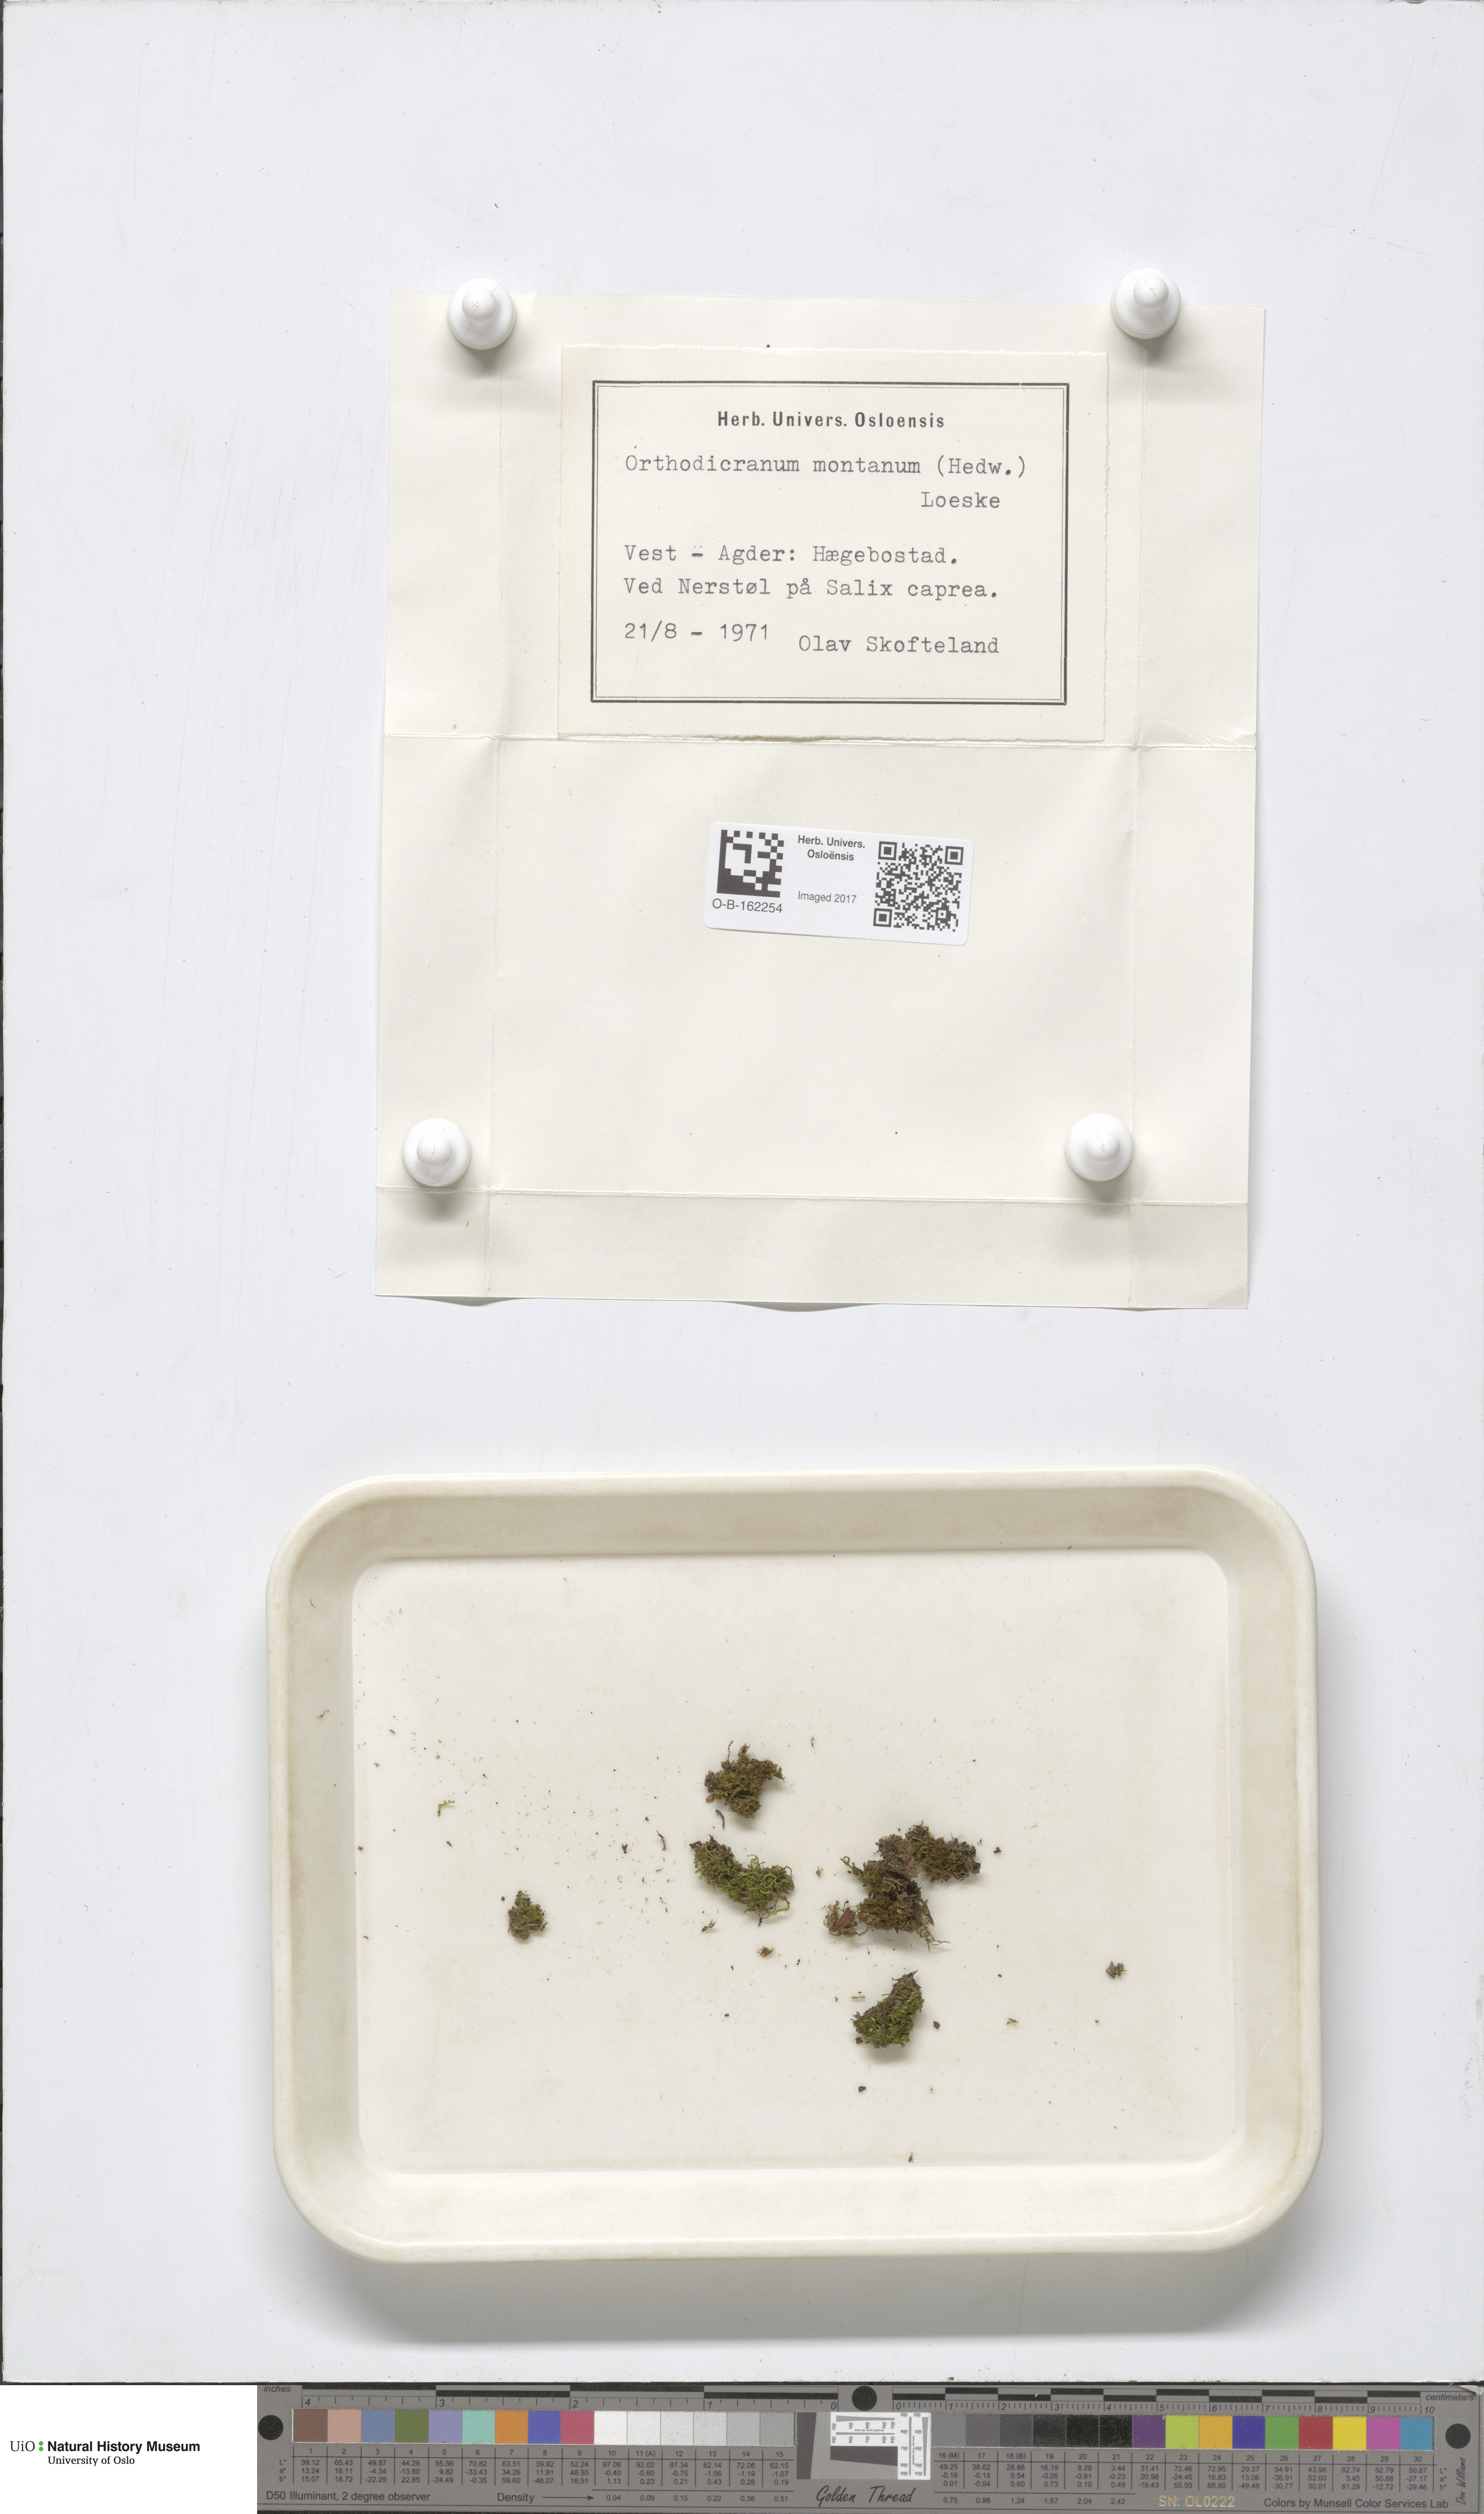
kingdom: Plantae
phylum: Bryophyta
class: Bryopsida
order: Dicranales
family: Dicranaceae
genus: Orthodicranum
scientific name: Orthodicranum montanum
